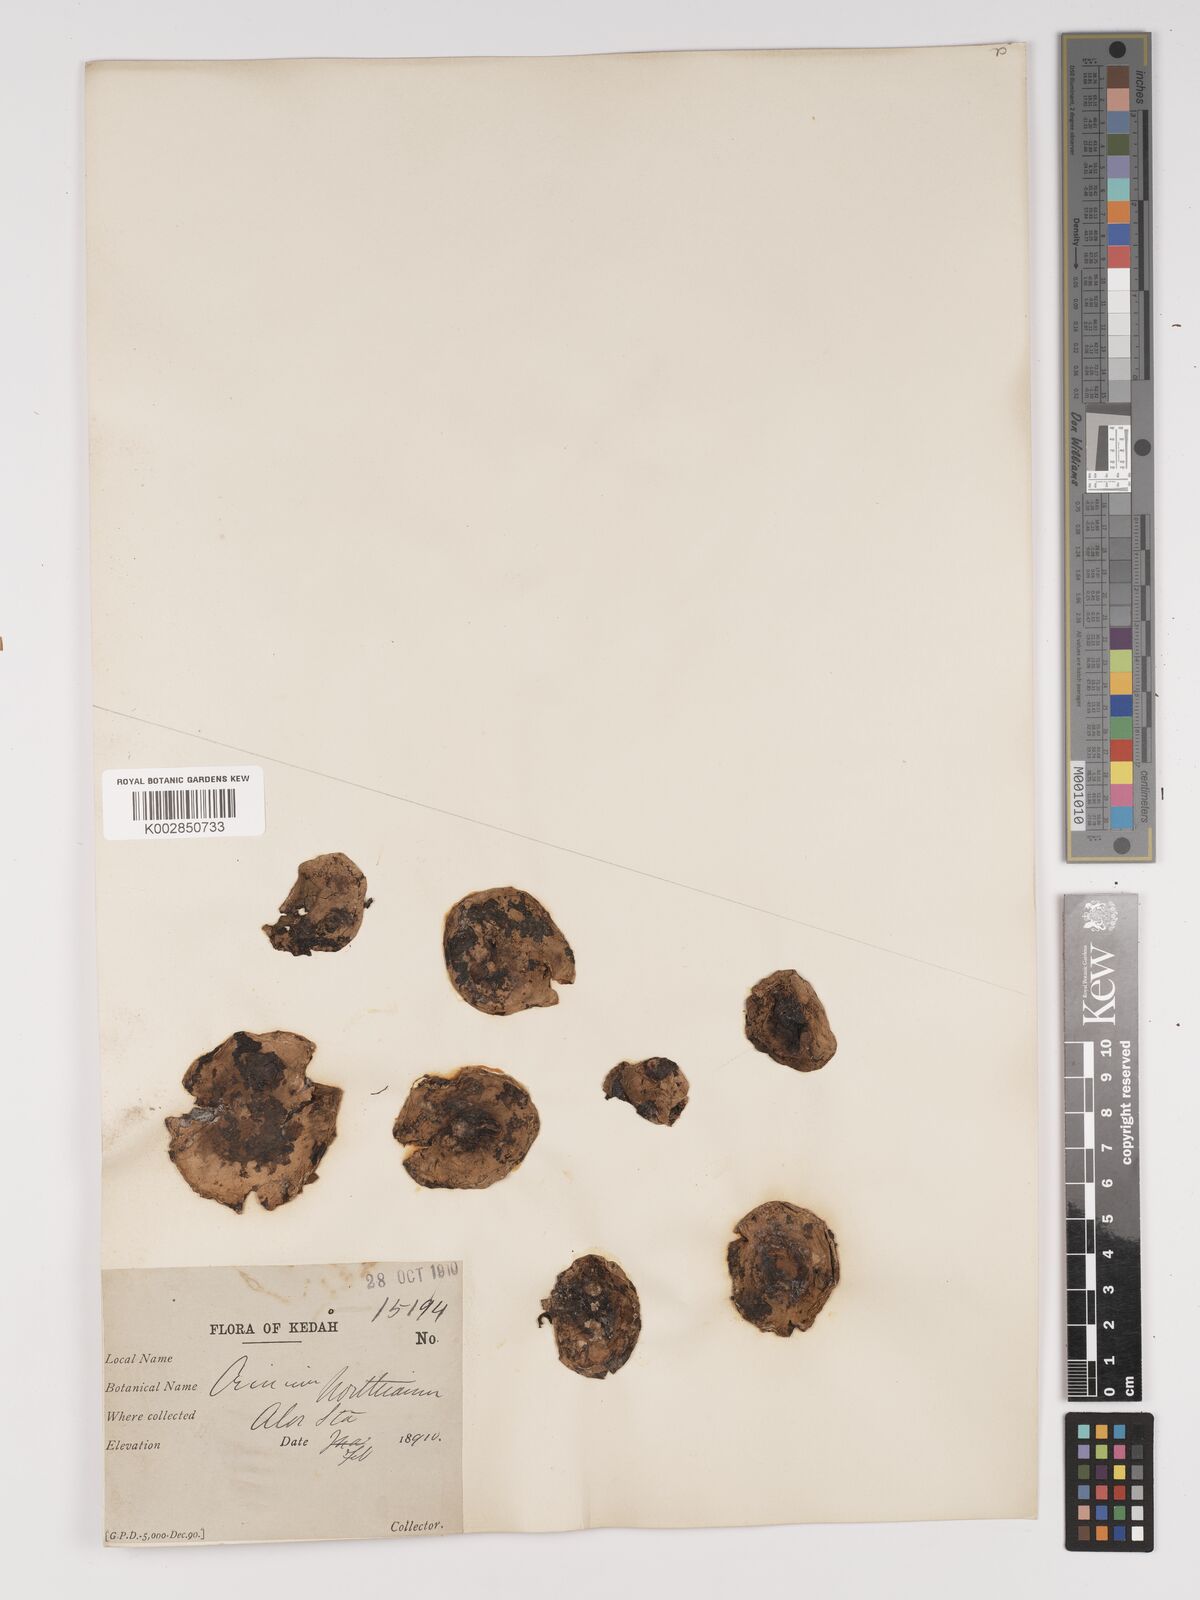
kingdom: Plantae
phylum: Tracheophyta
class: Liliopsida
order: Asparagales
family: Amaryllidaceae
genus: Crinum
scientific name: Crinum asiaticum
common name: Poisonbulb
